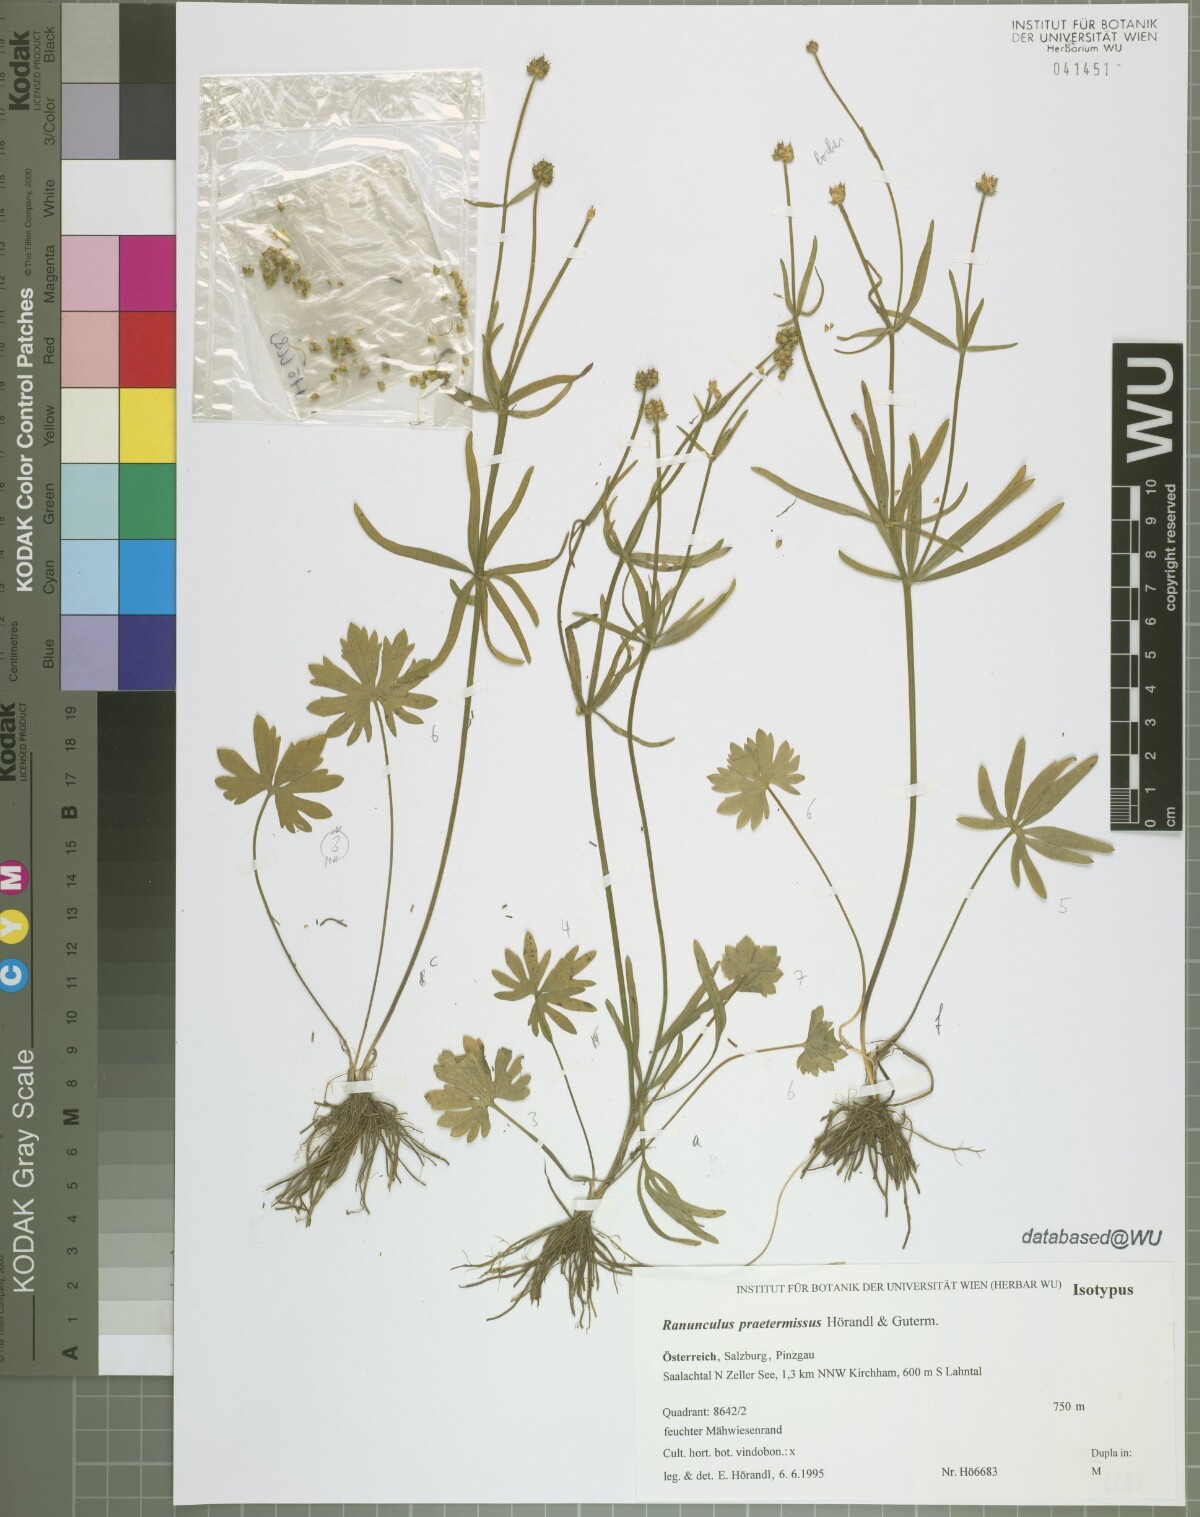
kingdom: Plantae
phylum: Tracheophyta
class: Magnoliopsida
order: Ranunculales
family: Ranunculaceae
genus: Ranunculus
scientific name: Ranunculus praetermissus
